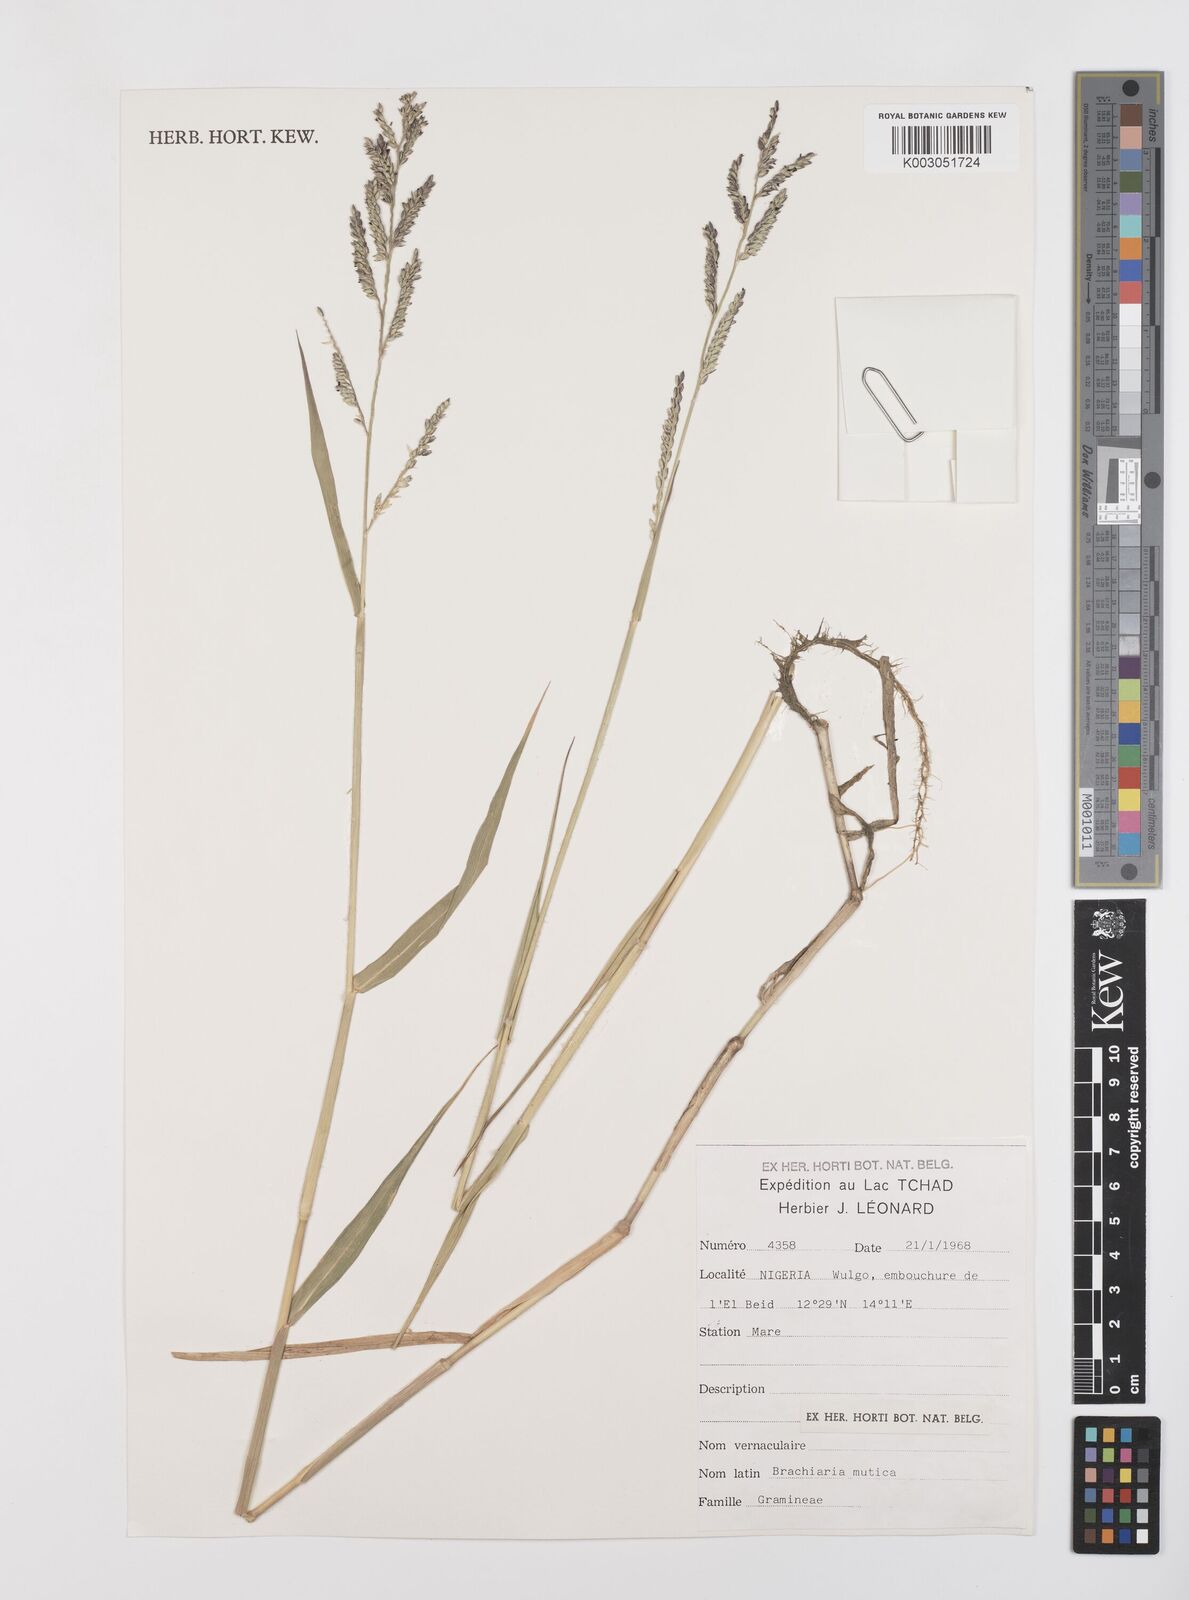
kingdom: Plantae
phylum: Tracheophyta
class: Liliopsida
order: Poales
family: Poaceae
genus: Urochloa
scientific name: Urochloa mutica
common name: Para grass
